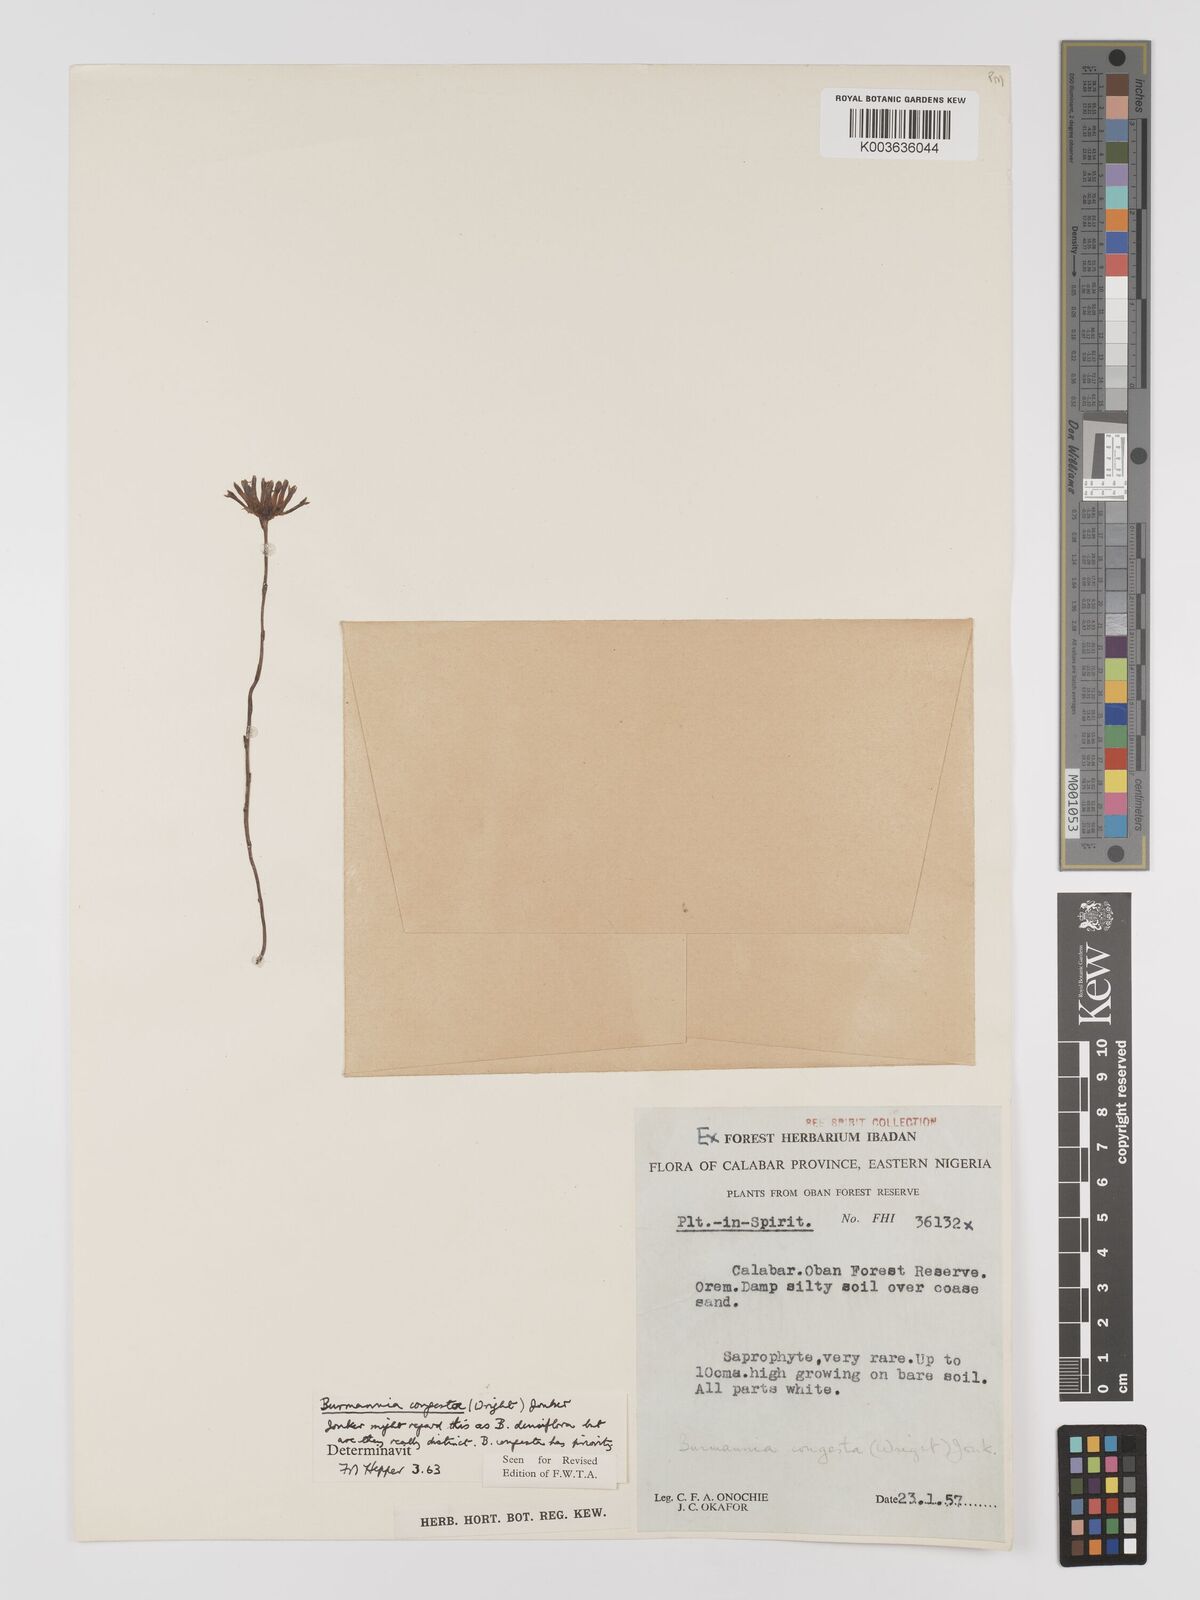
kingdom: Plantae
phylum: Tracheophyta
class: Liliopsida
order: Dioscoreales
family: Burmanniaceae
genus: Campylosiphon
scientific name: Campylosiphon congestus
